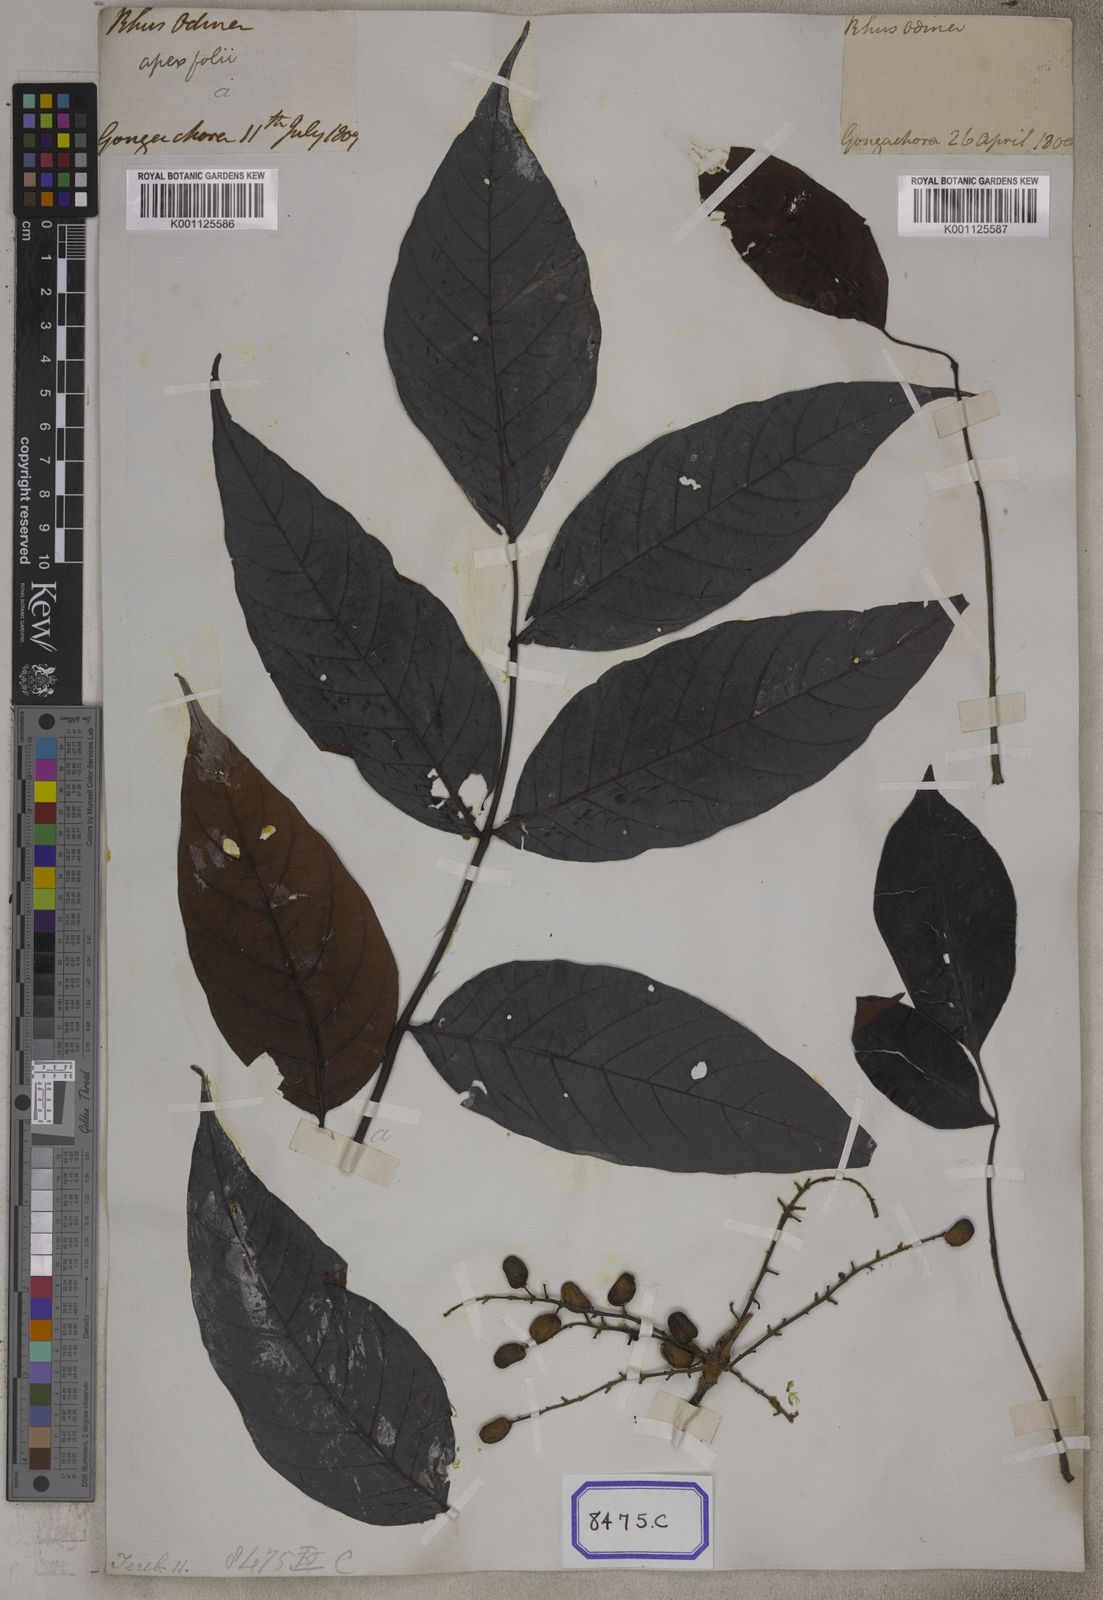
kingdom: Plantae
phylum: Tracheophyta
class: Magnoliopsida
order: Sapindales
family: Anacardiaceae
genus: Lannea
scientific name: Lannea coromandelica
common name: Indian ash tree
